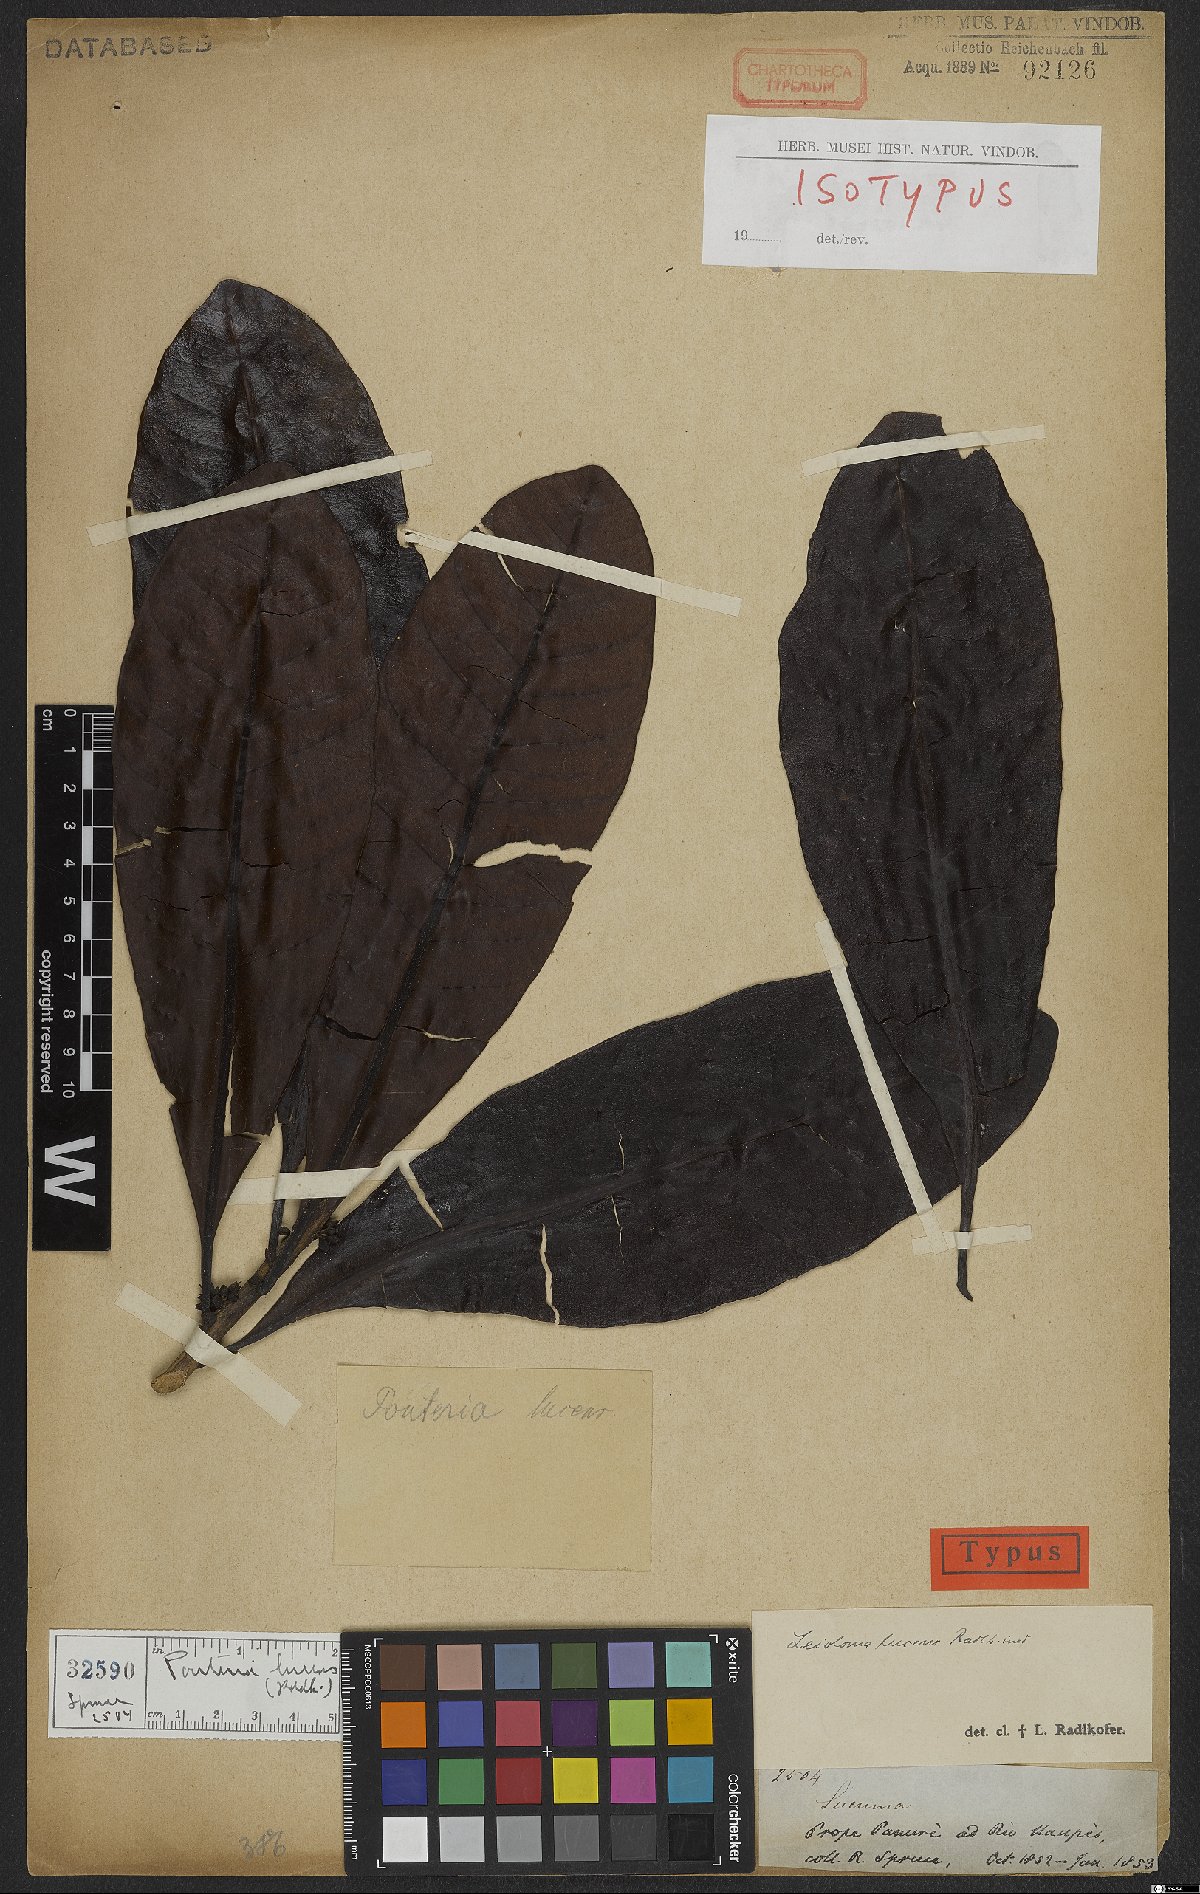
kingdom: Plantae
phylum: Tracheophyta
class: Magnoliopsida
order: Ericales
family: Sapotaceae
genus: Pouteria
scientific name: Pouteria lucens
